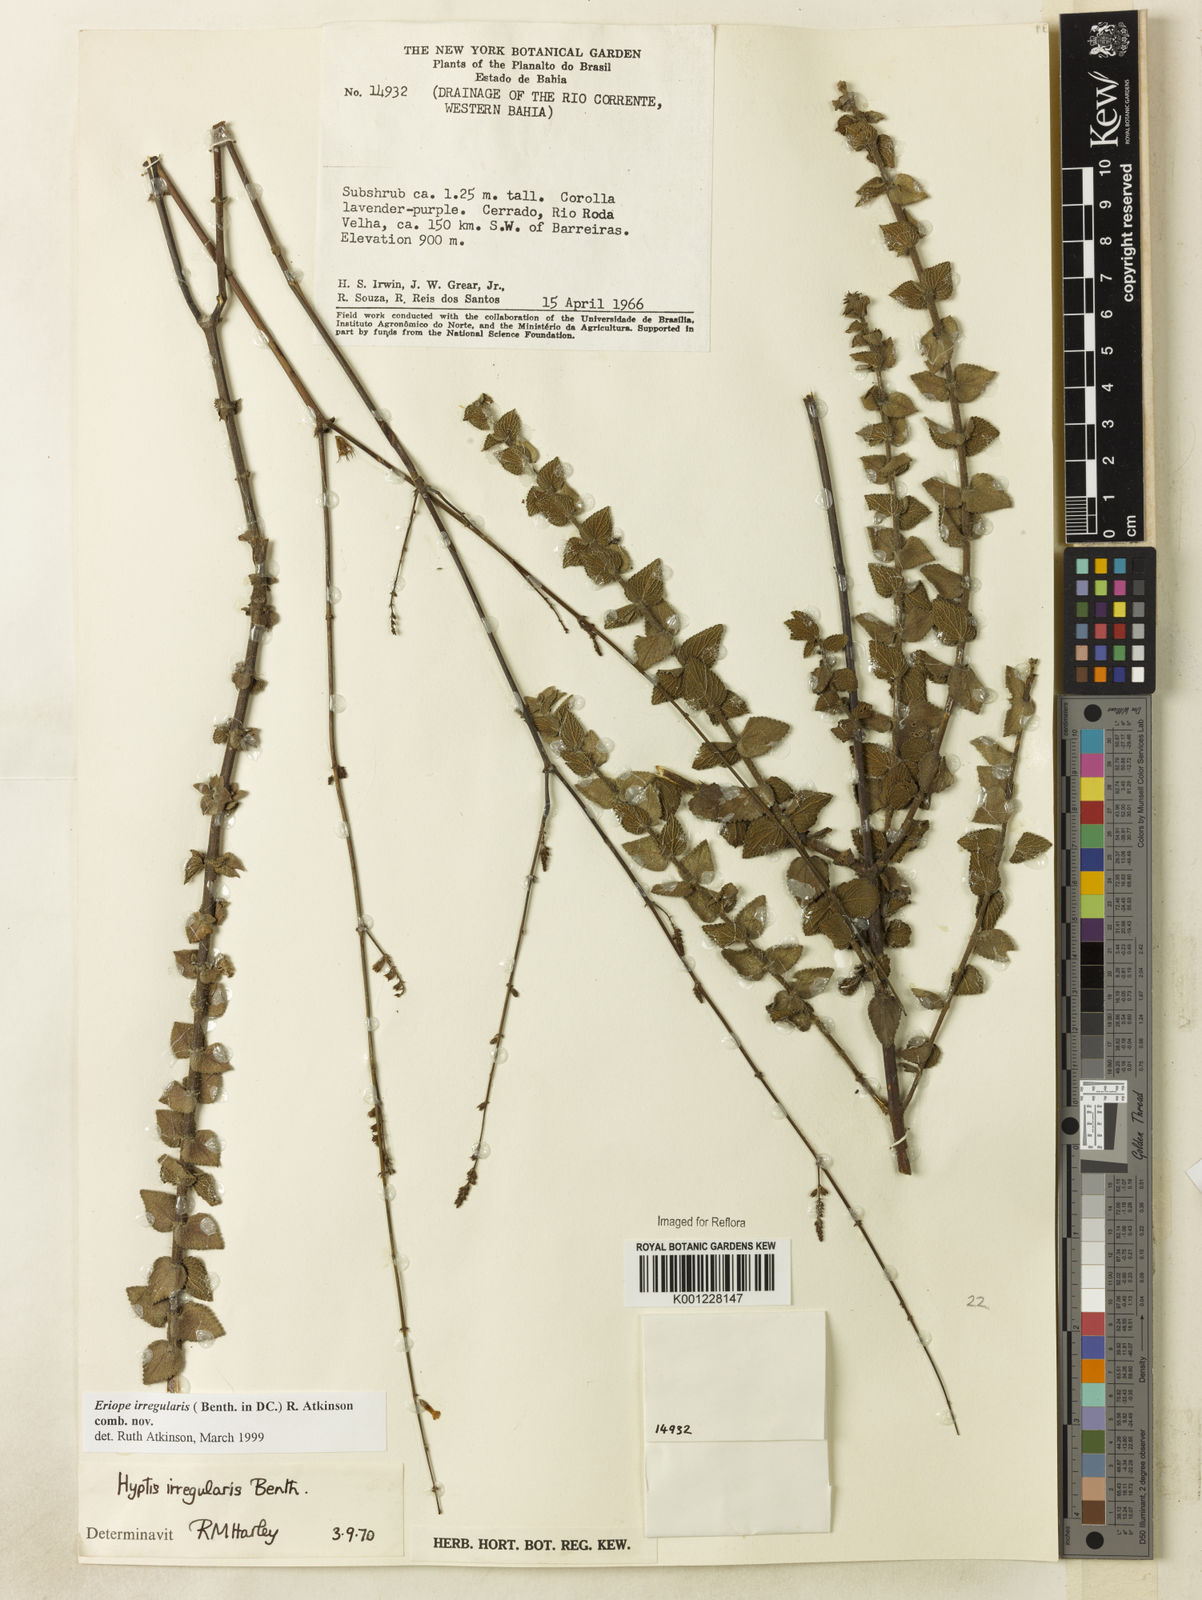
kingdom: Plantae
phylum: Tracheophyta
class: Magnoliopsida
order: Lamiales
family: Lamiaceae
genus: Hypenia
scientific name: Hypenia irregularis
